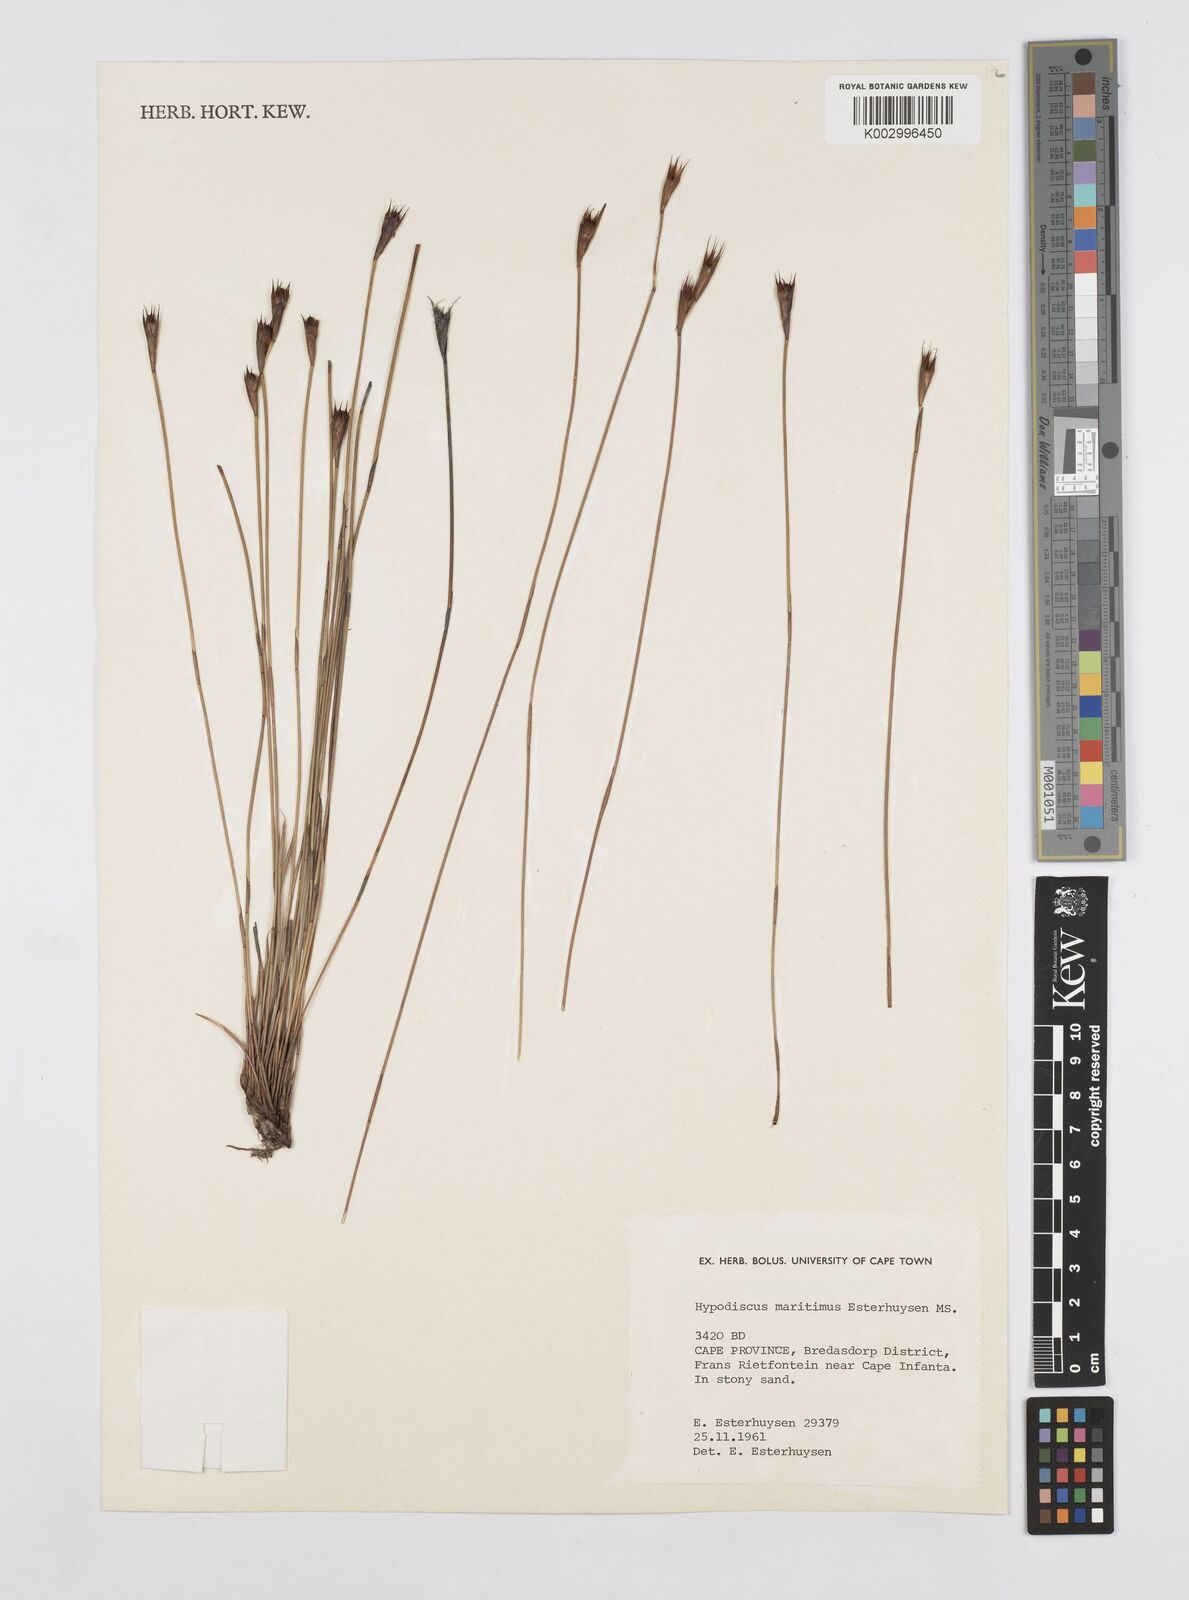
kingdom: Plantae
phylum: Tracheophyta
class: Liliopsida
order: Poales
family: Restionaceae
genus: Hypodiscus
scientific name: Hypodiscus
